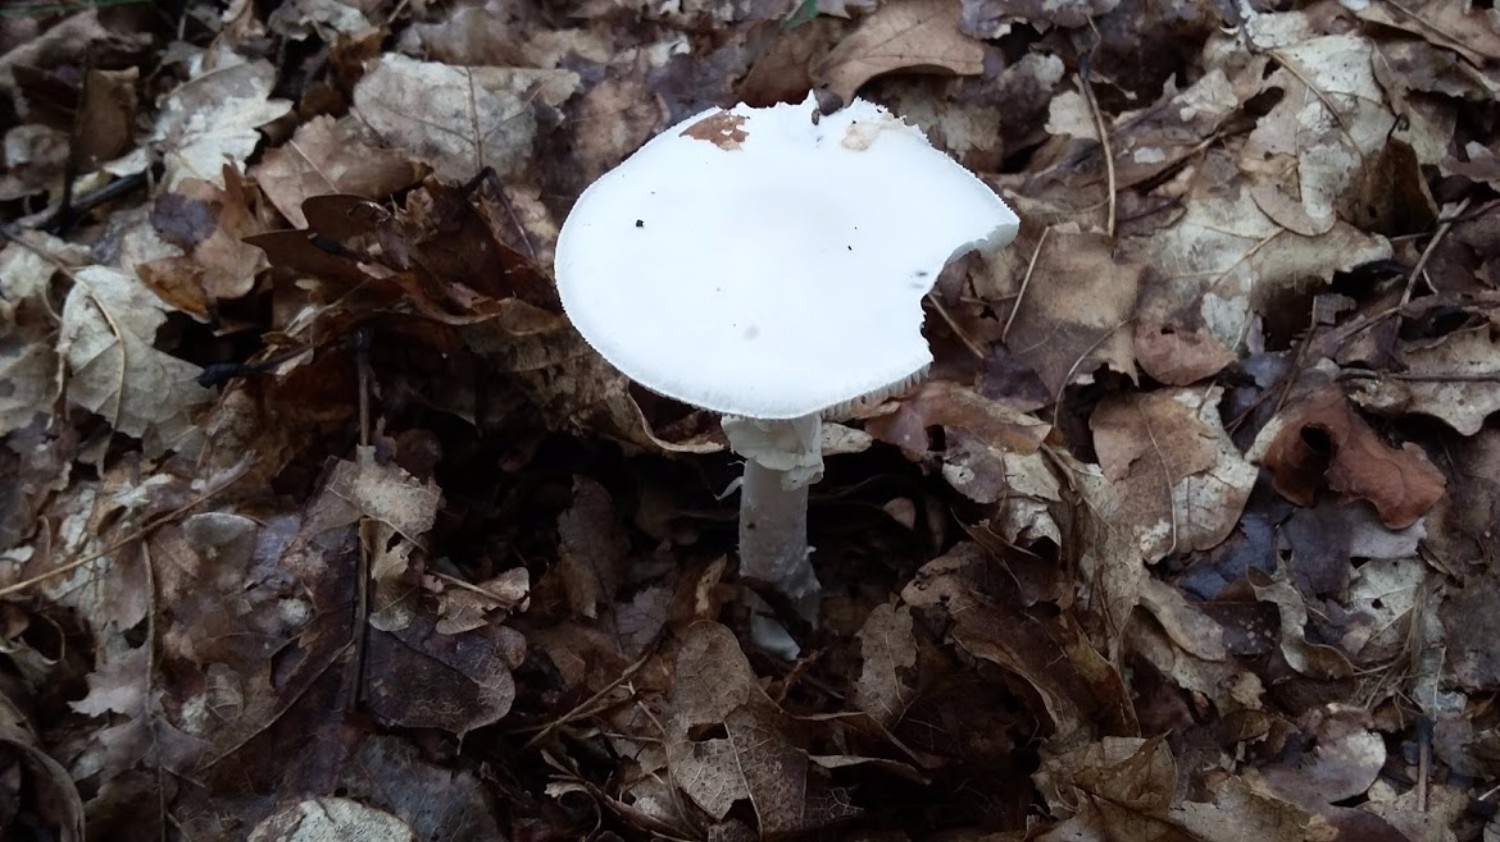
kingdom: Fungi
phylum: Basidiomycota
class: Agaricomycetes
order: Agaricales
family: Amanitaceae
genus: Amanita
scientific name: Amanita virosa
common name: snehvid fluesvamp
